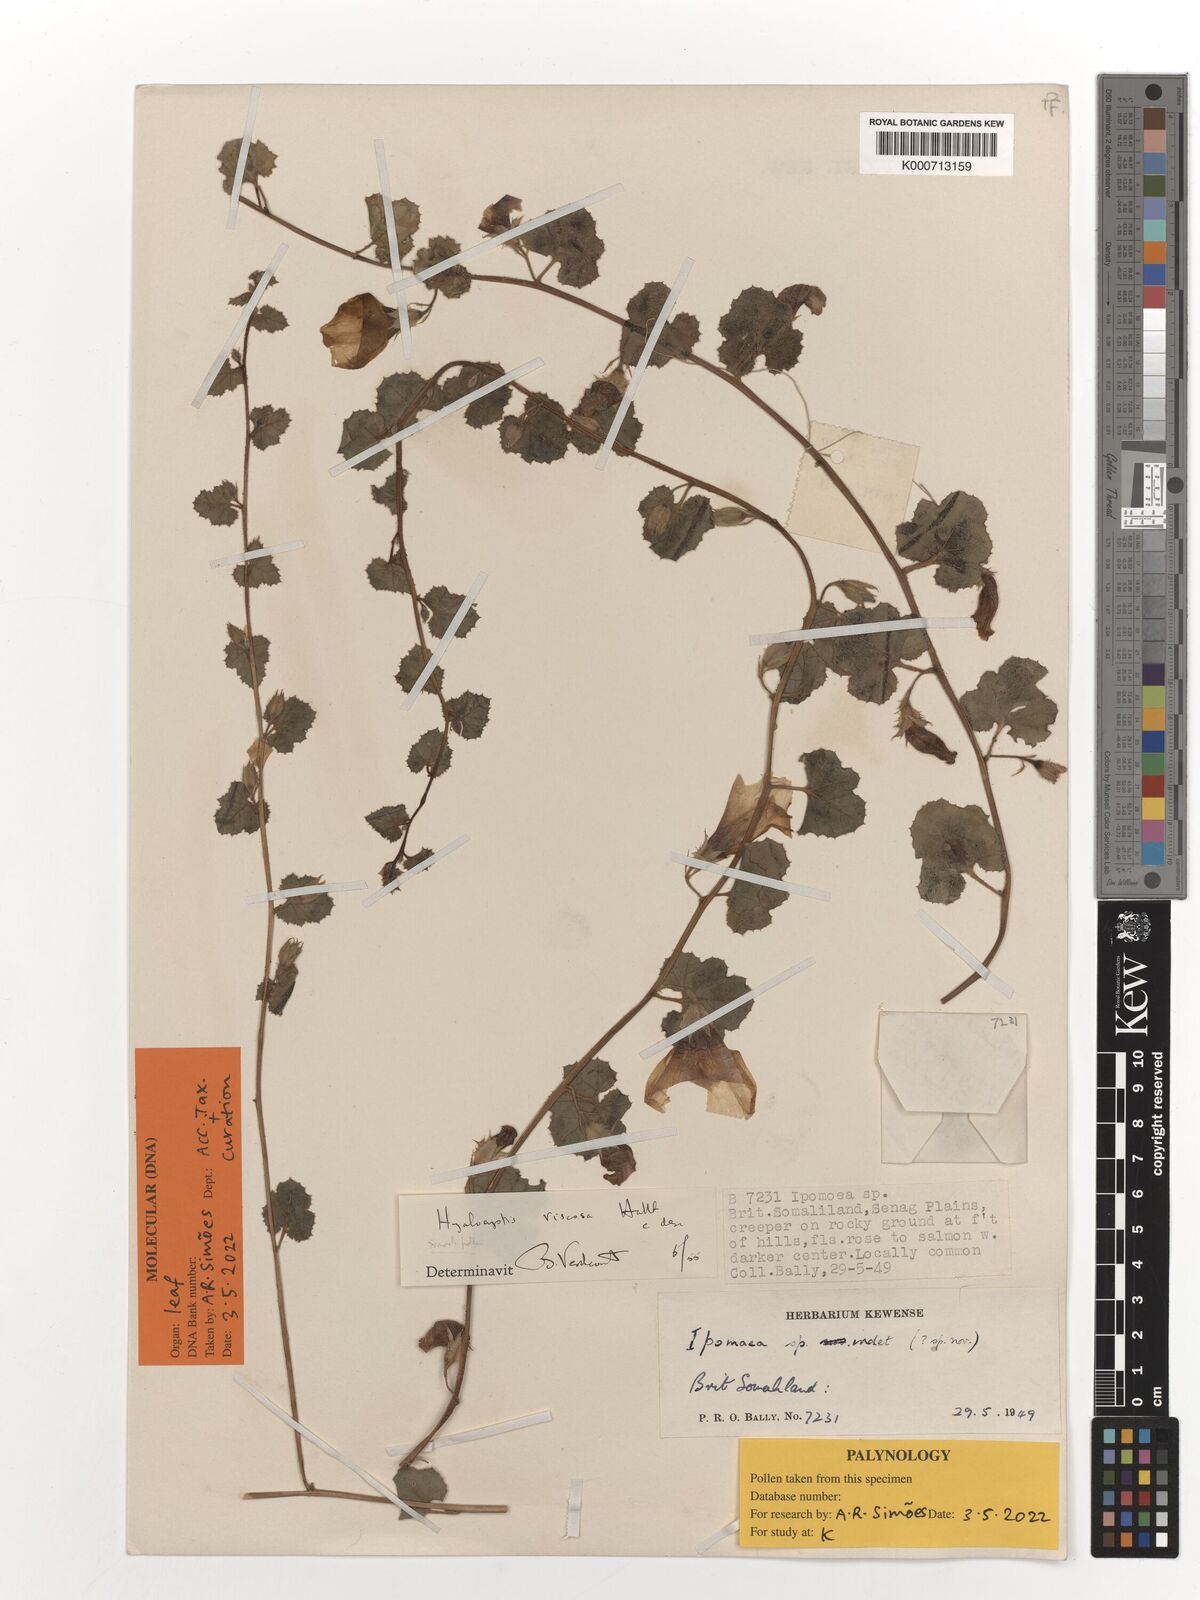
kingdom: Plantae
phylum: Tracheophyta
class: Magnoliopsida
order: Solanales
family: Convolvulaceae
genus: Hyalocystis
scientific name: Hyalocystis viscosa
